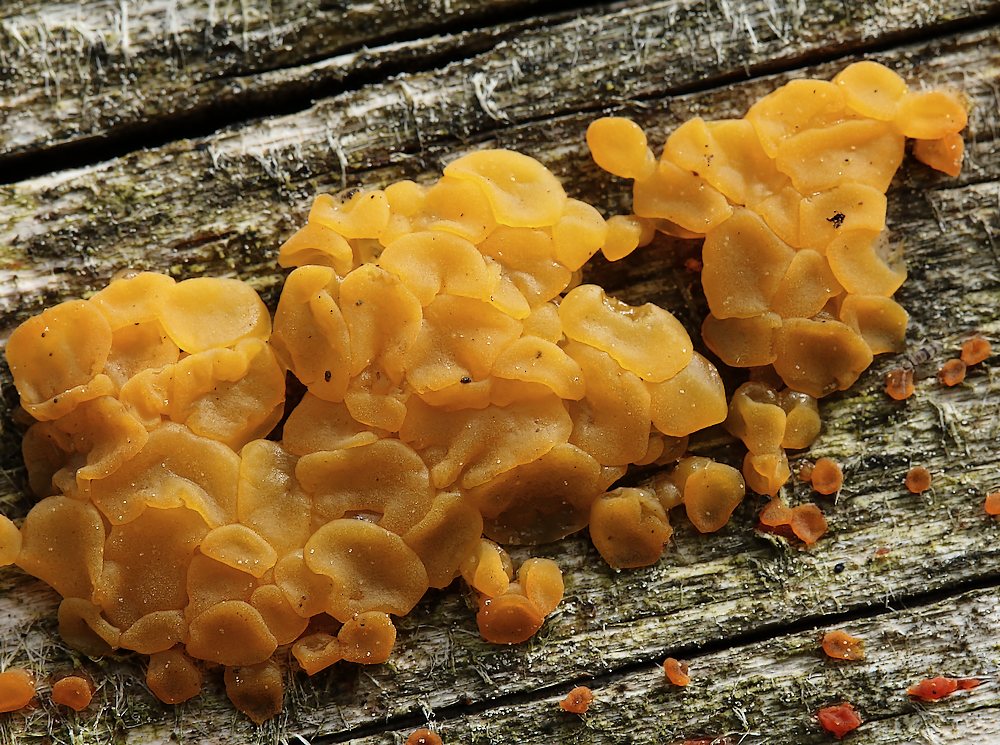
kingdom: Fungi
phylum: Basidiomycota
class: Dacrymycetes
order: Dacrymycetales
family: Dacrymycetaceae
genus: Dacrymyces
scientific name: Dacrymyces
